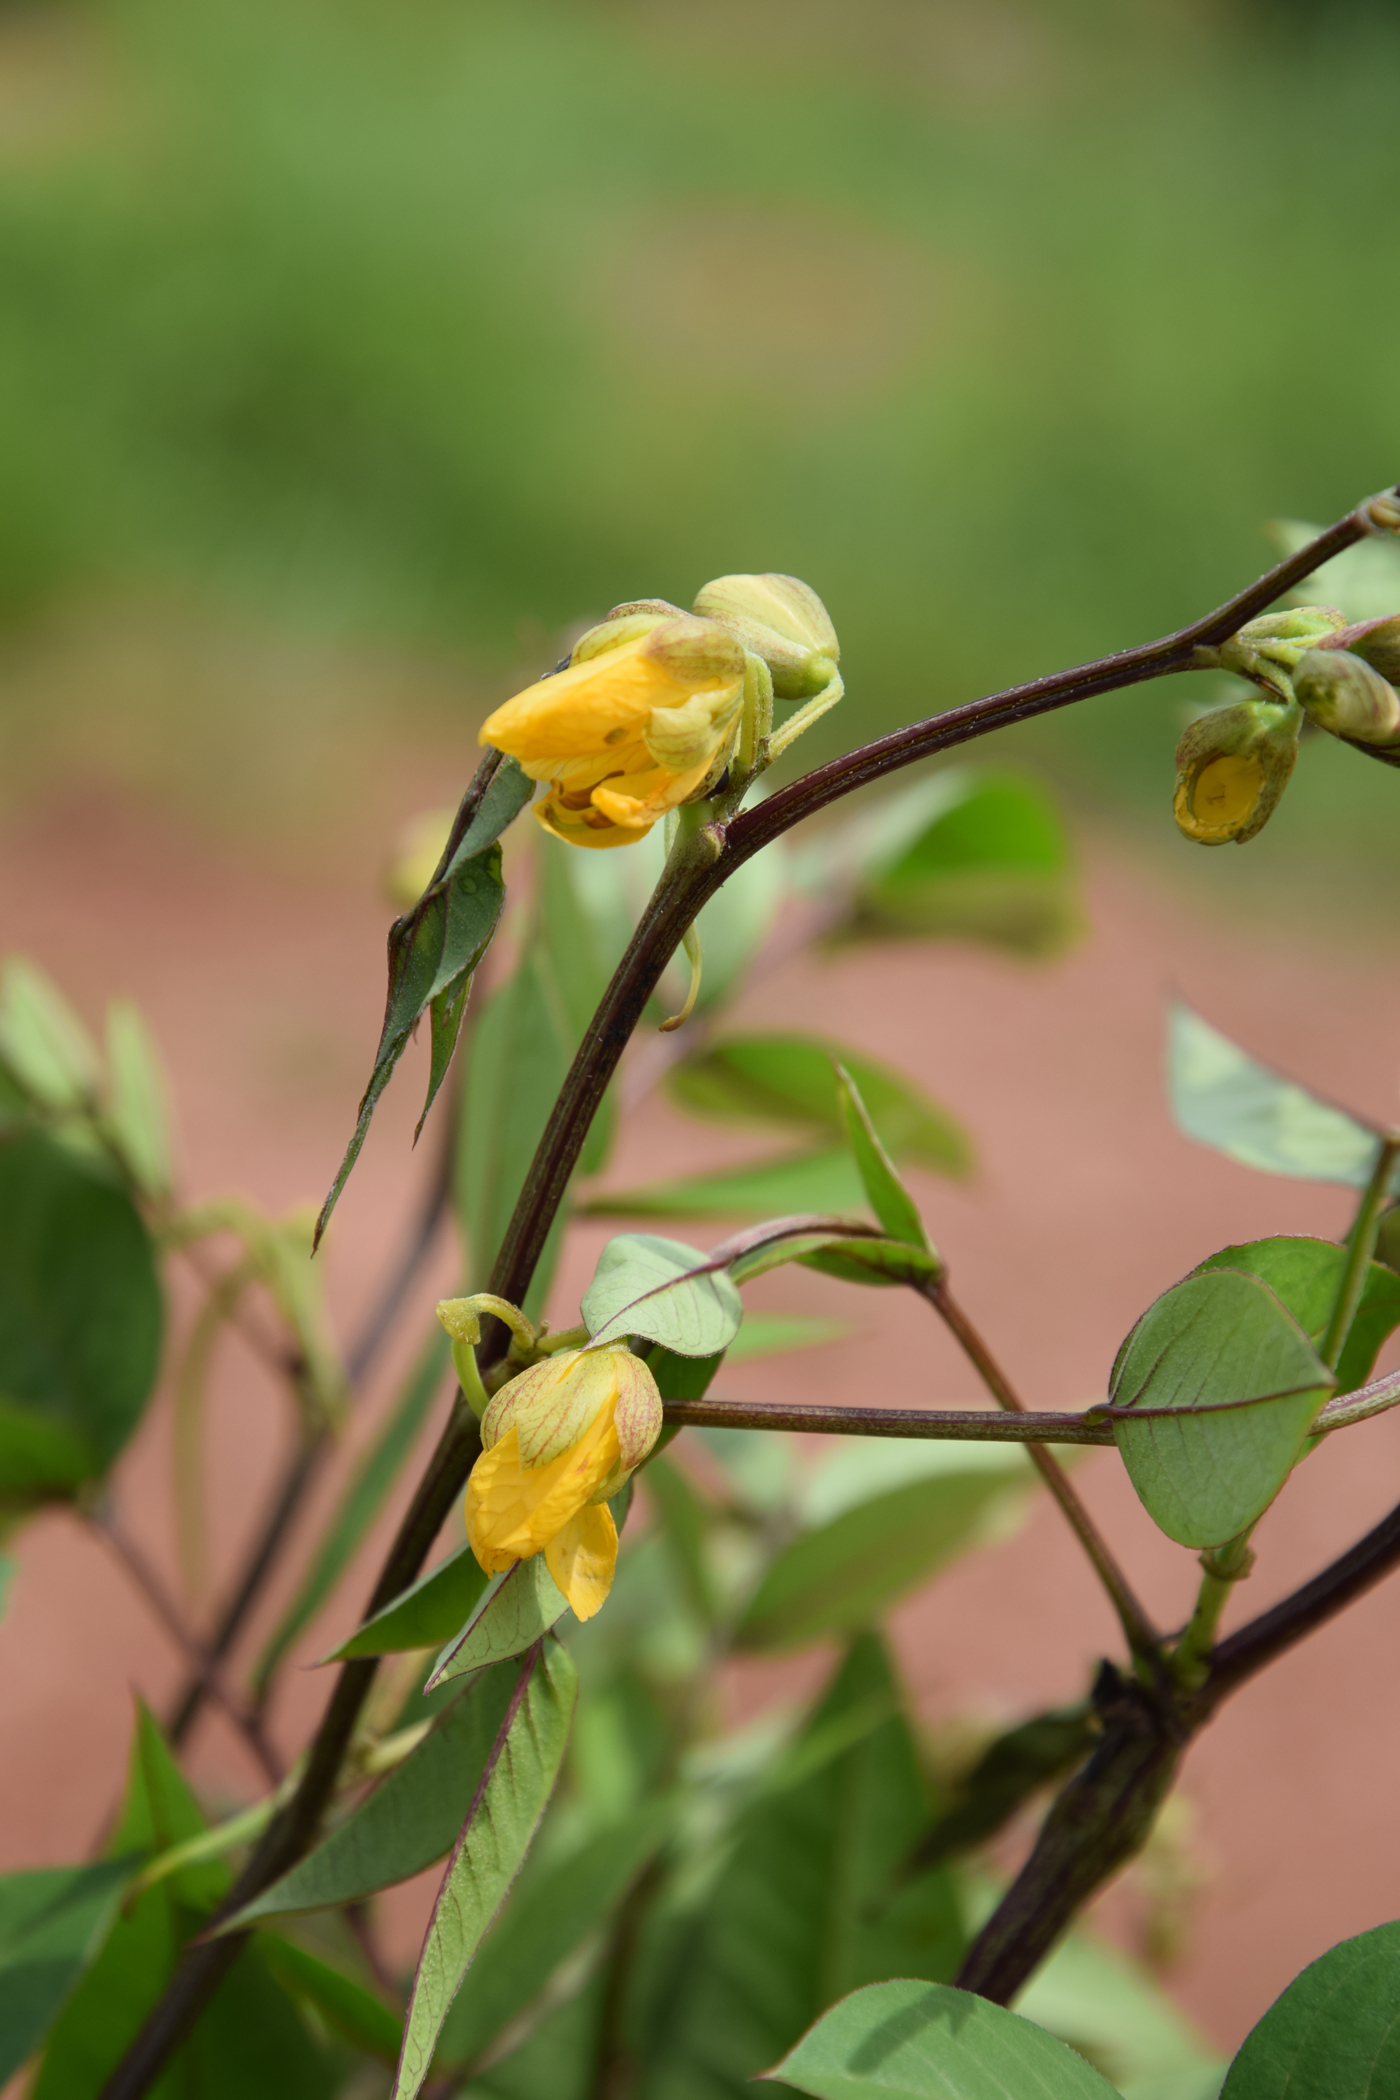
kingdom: Plantae
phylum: Tracheophyta
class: Magnoliopsida
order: Fabales
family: Fabaceae
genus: Senna
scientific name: Senna occidentalis
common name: Septicweed
